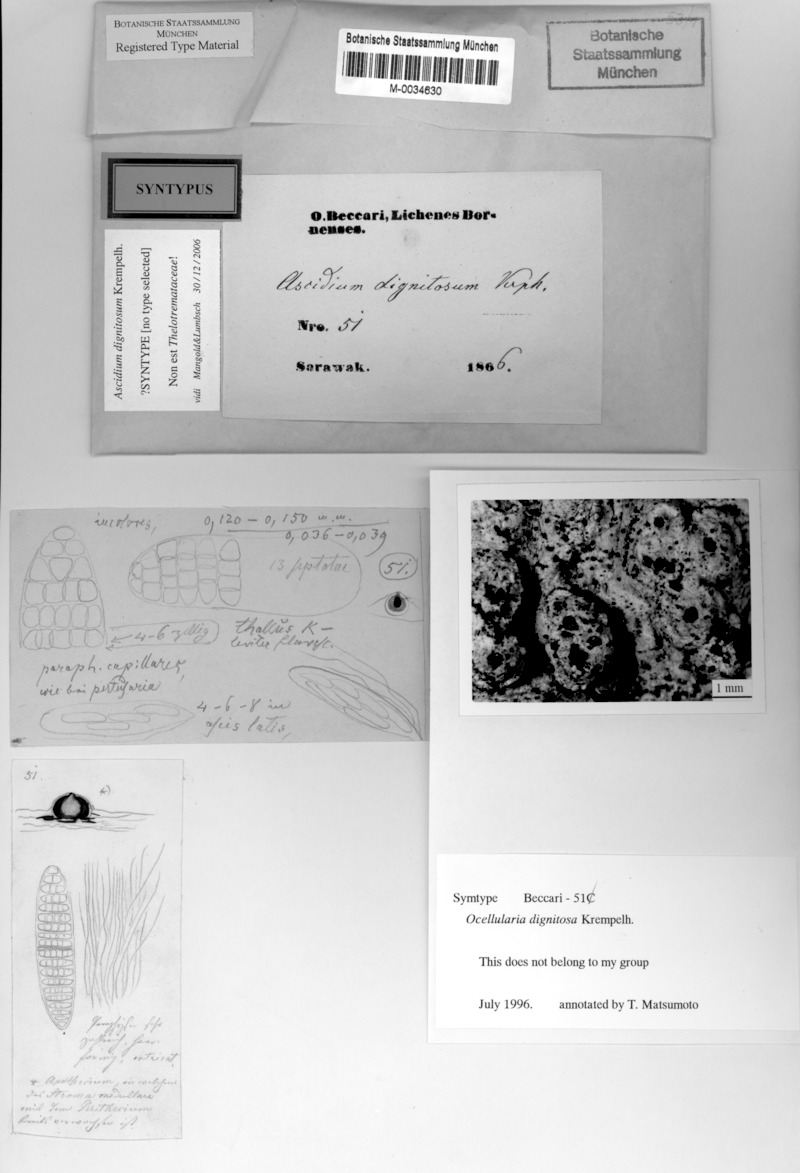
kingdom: Fungi
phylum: Ascomycota
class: Lecanoromycetes
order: Ostropales
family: Graphidaceae
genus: Thelotrema
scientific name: Thelotrema dignitosum
